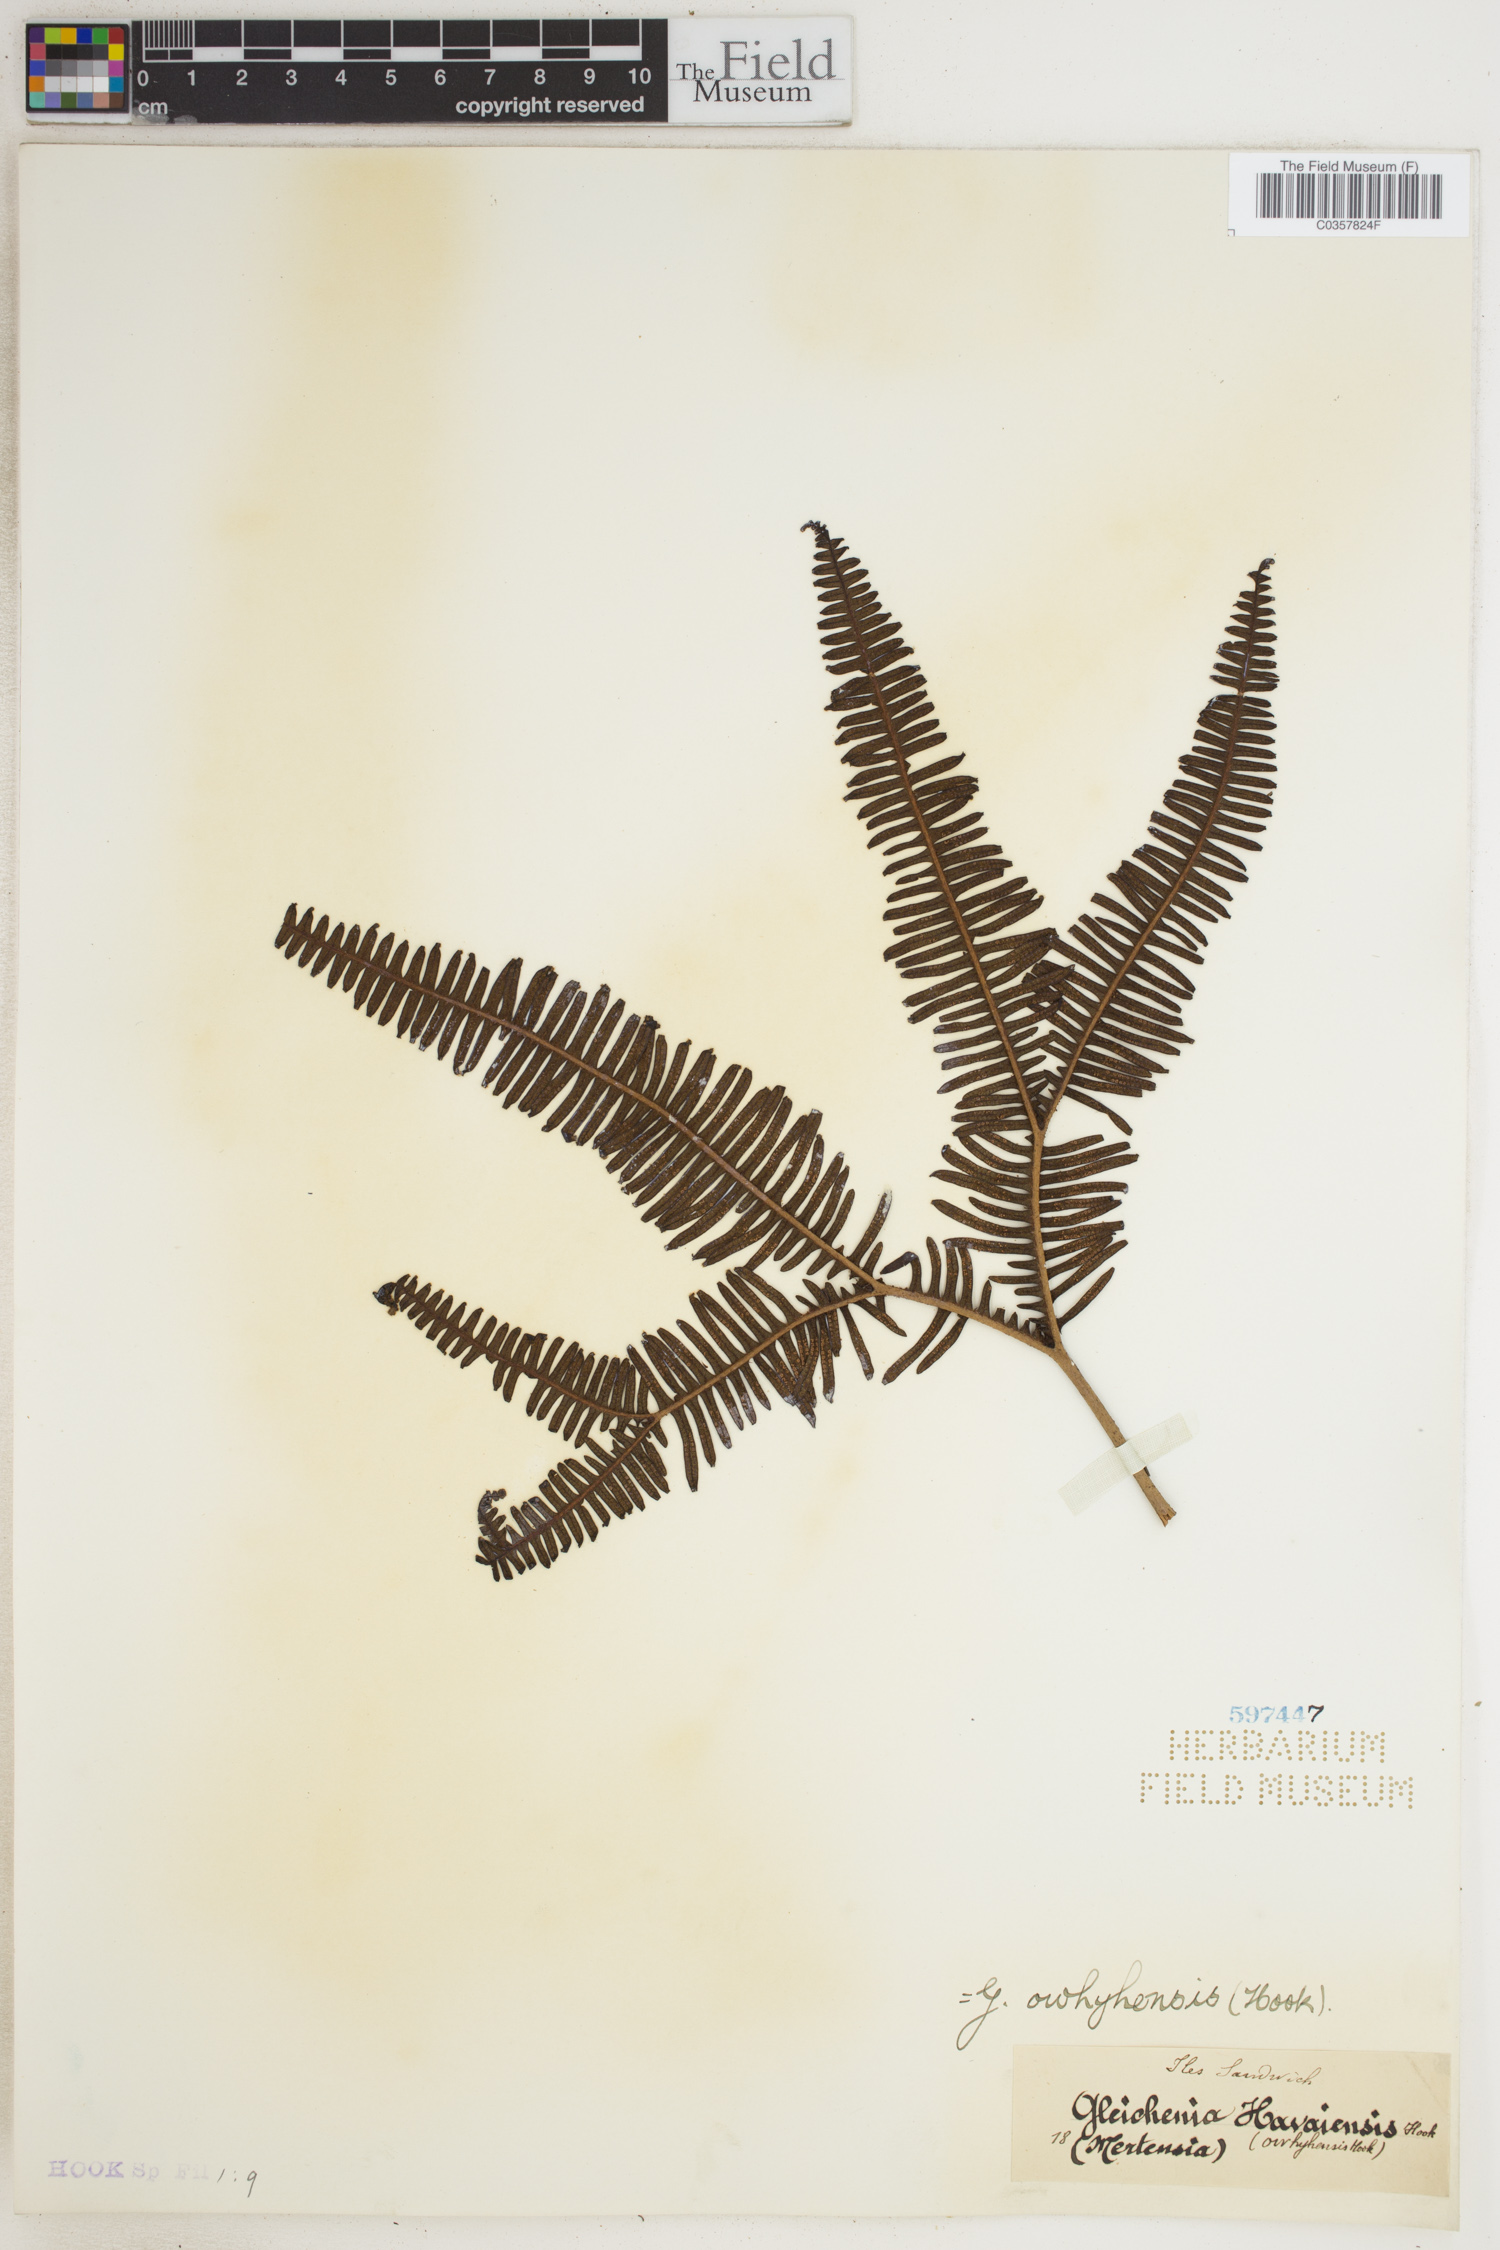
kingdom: Plantae
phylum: Tracheophyta
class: Polypodiopsida
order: Gleicheniales
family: Gleicheniaceae
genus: Sticherus
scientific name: Sticherus owhyhensis
